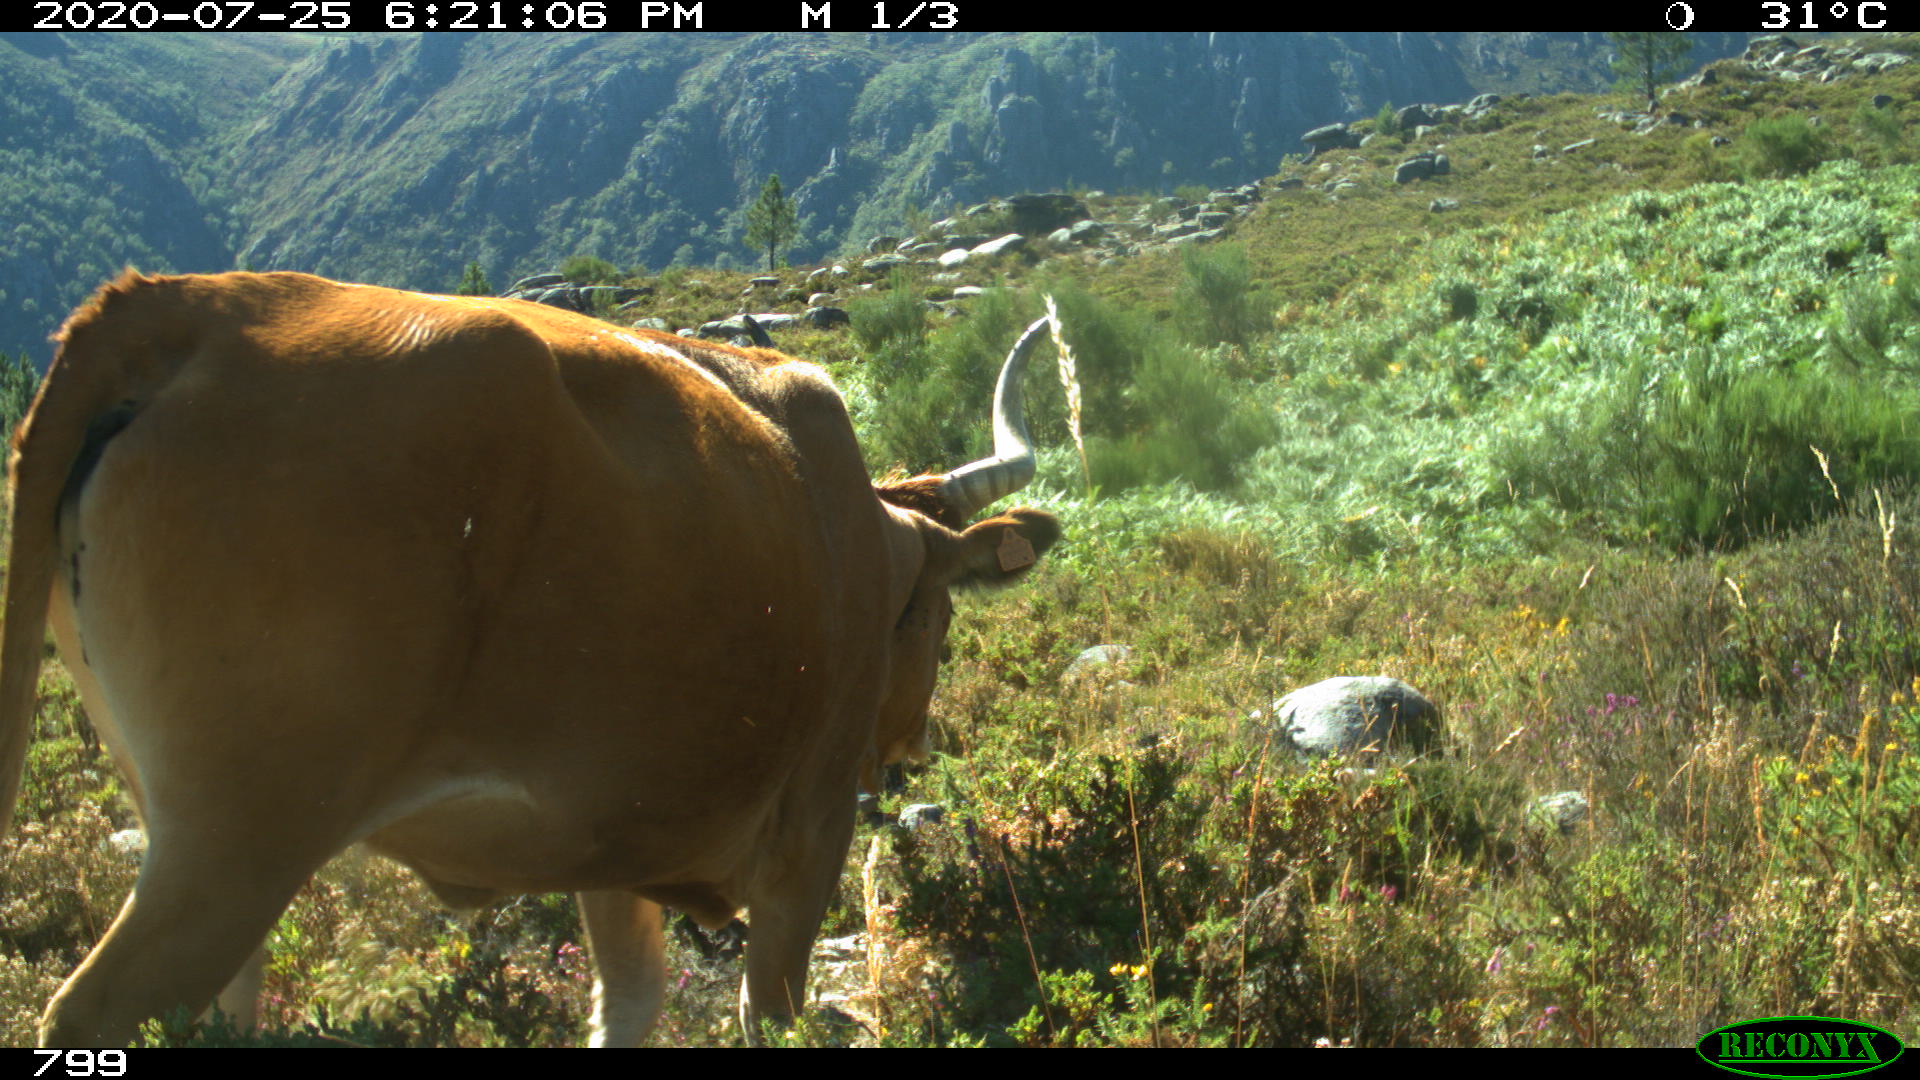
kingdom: Animalia
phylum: Chordata
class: Mammalia
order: Artiodactyla
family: Bovidae
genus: Bos
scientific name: Bos taurus
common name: Domesticated cattle
